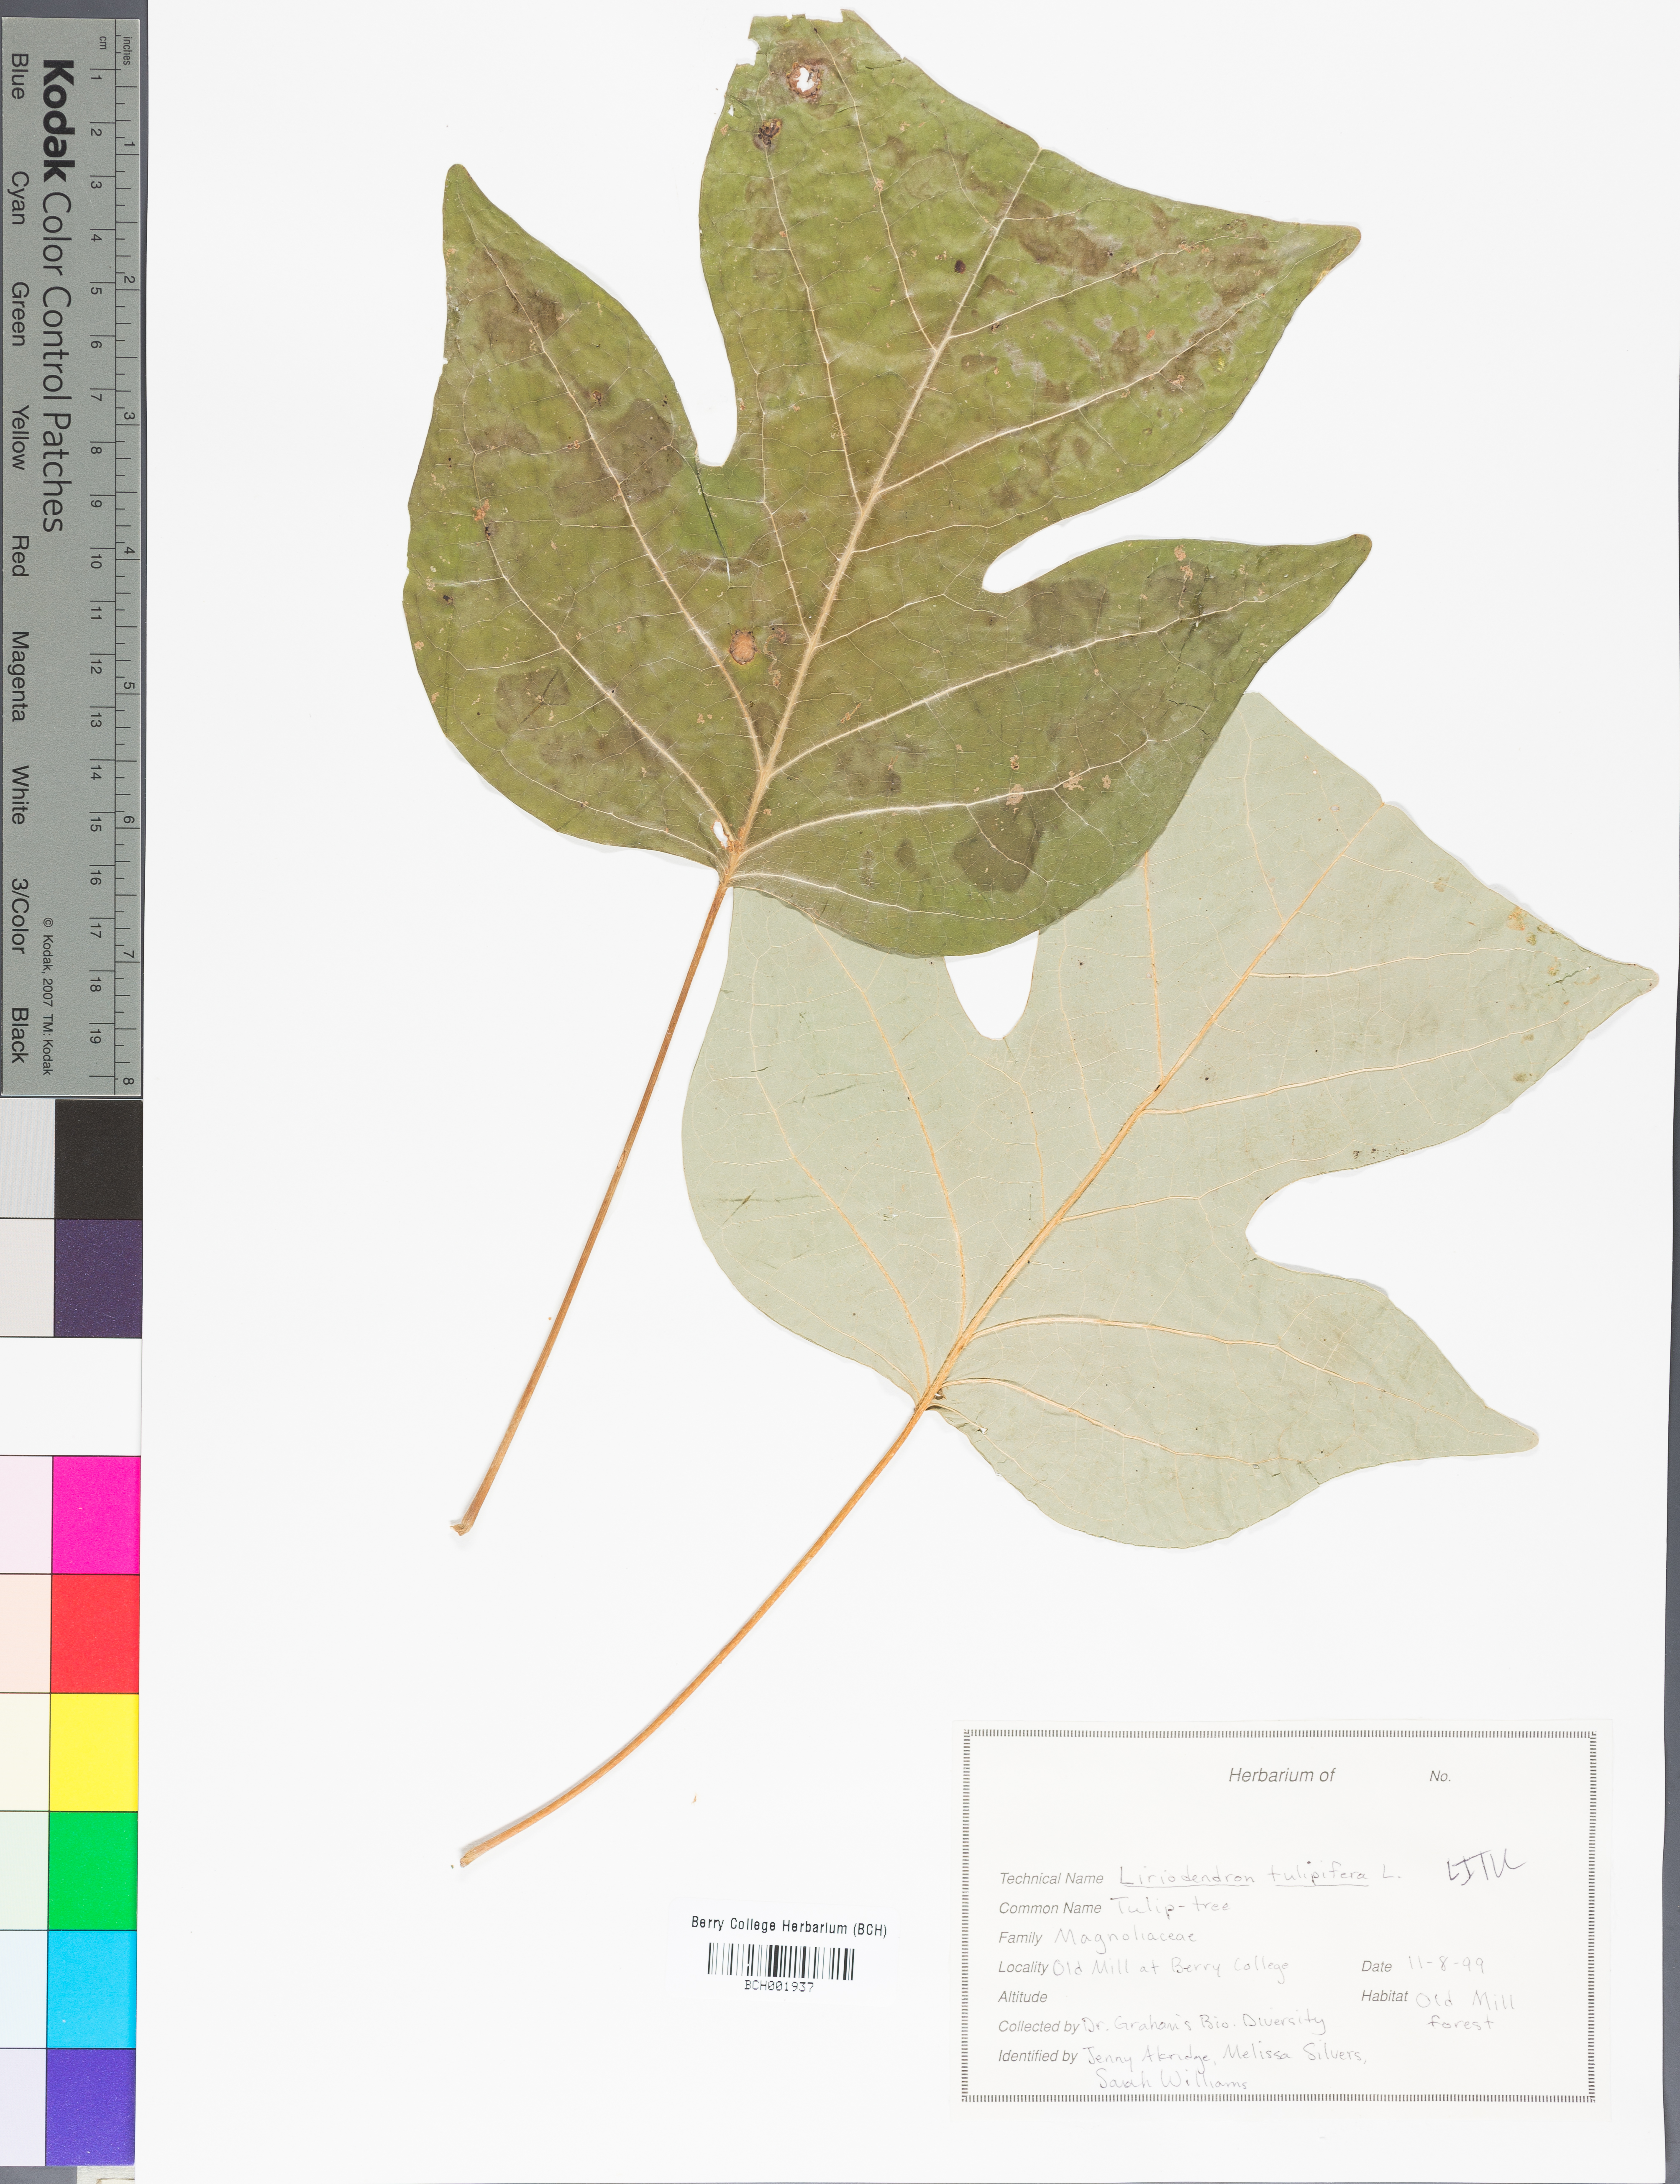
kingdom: Plantae
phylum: Tracheophyta
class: Magnoliopsida
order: Magnoliales
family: Magnoliaceae
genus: Liriodendron
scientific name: Liriodendron tulipifera
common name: Tulip tree
